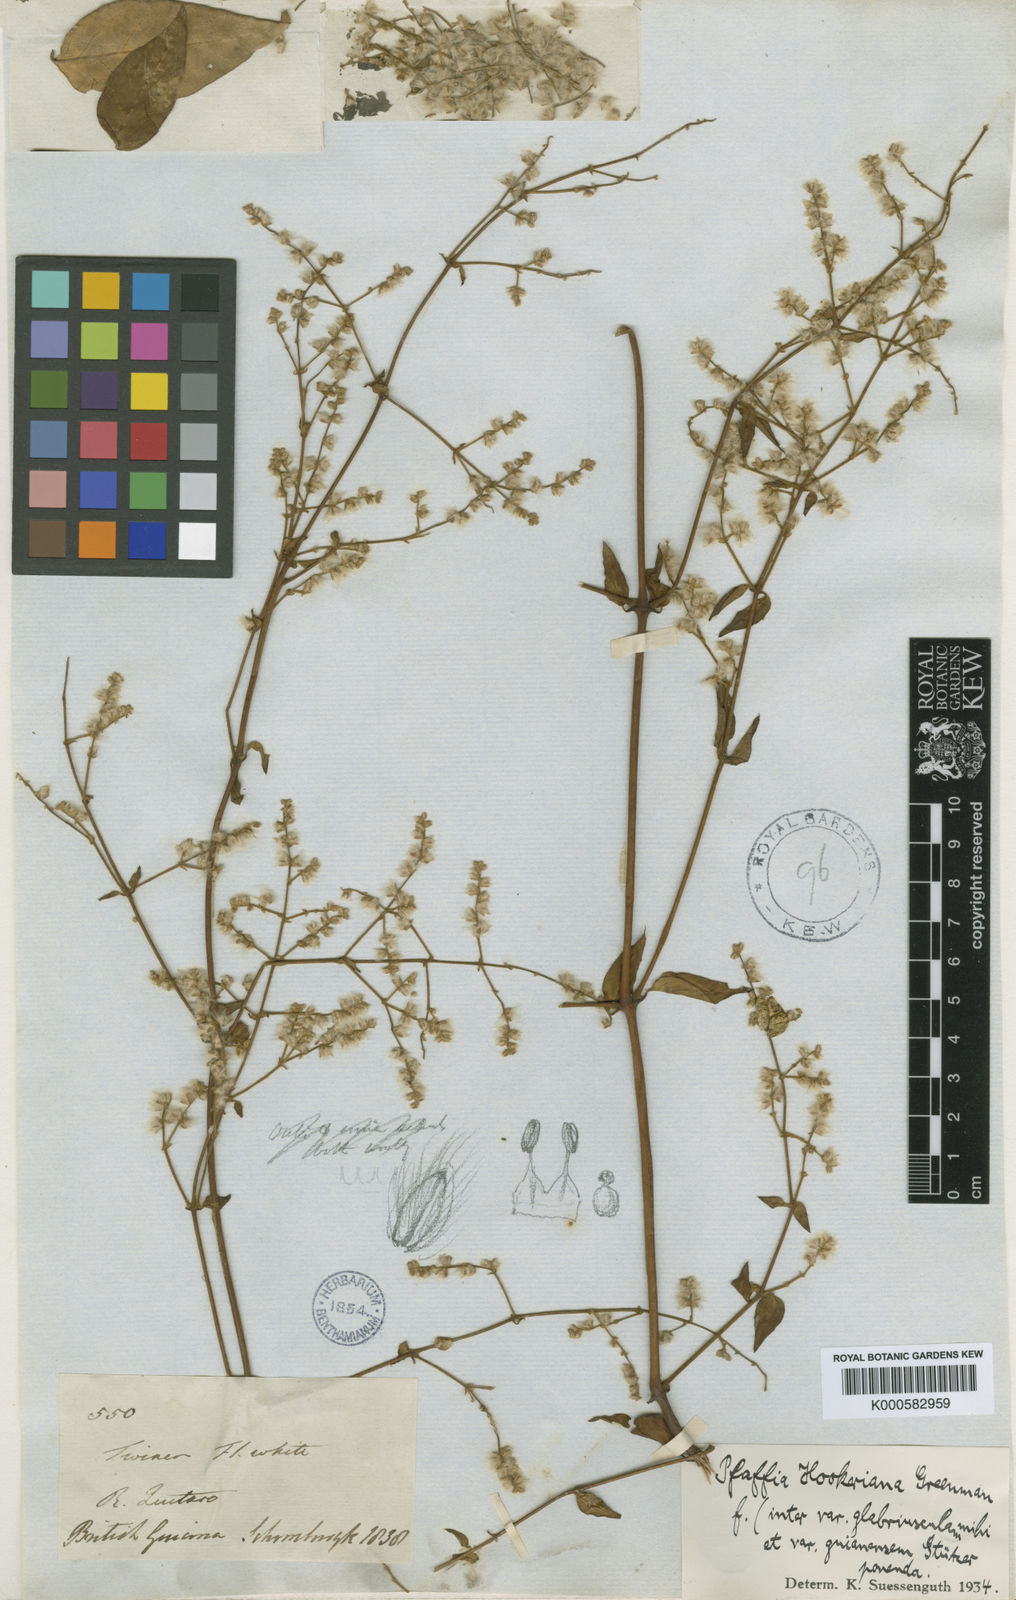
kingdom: Plantae
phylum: Tracheophyta
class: Magnoliopsida
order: Caryophyllales
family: Amaranthaceae
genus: Hebanthe
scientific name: Hebanthe grandiflora
